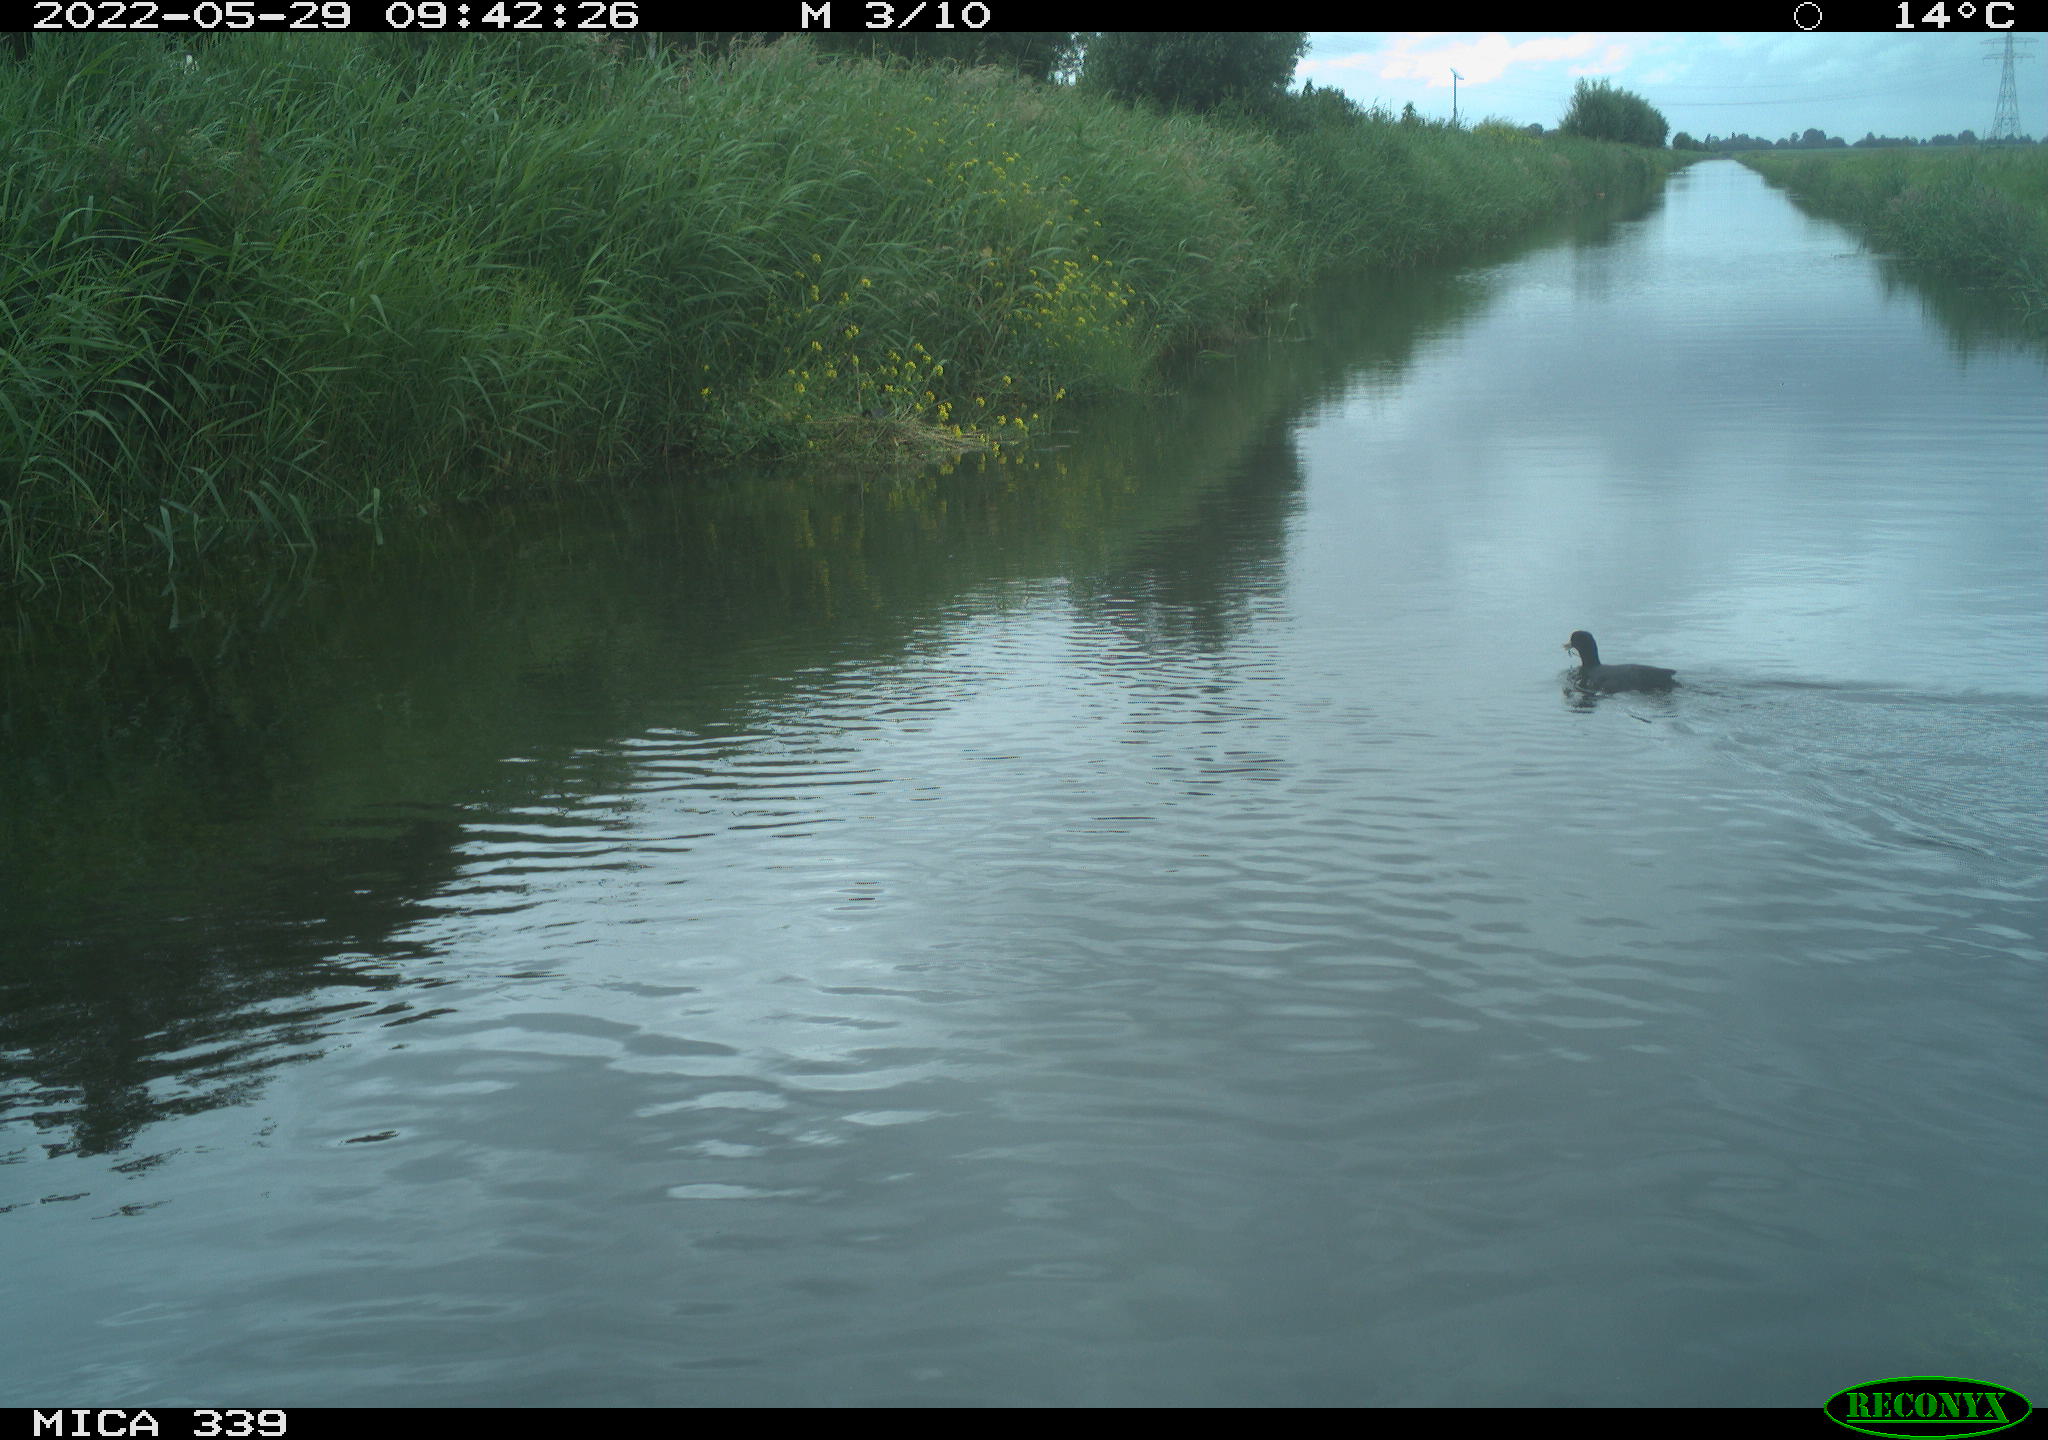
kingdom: Animalia
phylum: Chordata
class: Aves
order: Gruiformes
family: Rallidae
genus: Fulica
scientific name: Fulica atra
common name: Eurasian coot
